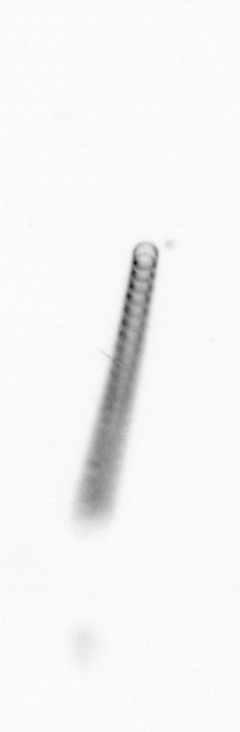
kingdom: Chromista
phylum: Ochrophyta
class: Bacillariophyceae
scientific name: Bacillariophyceae
